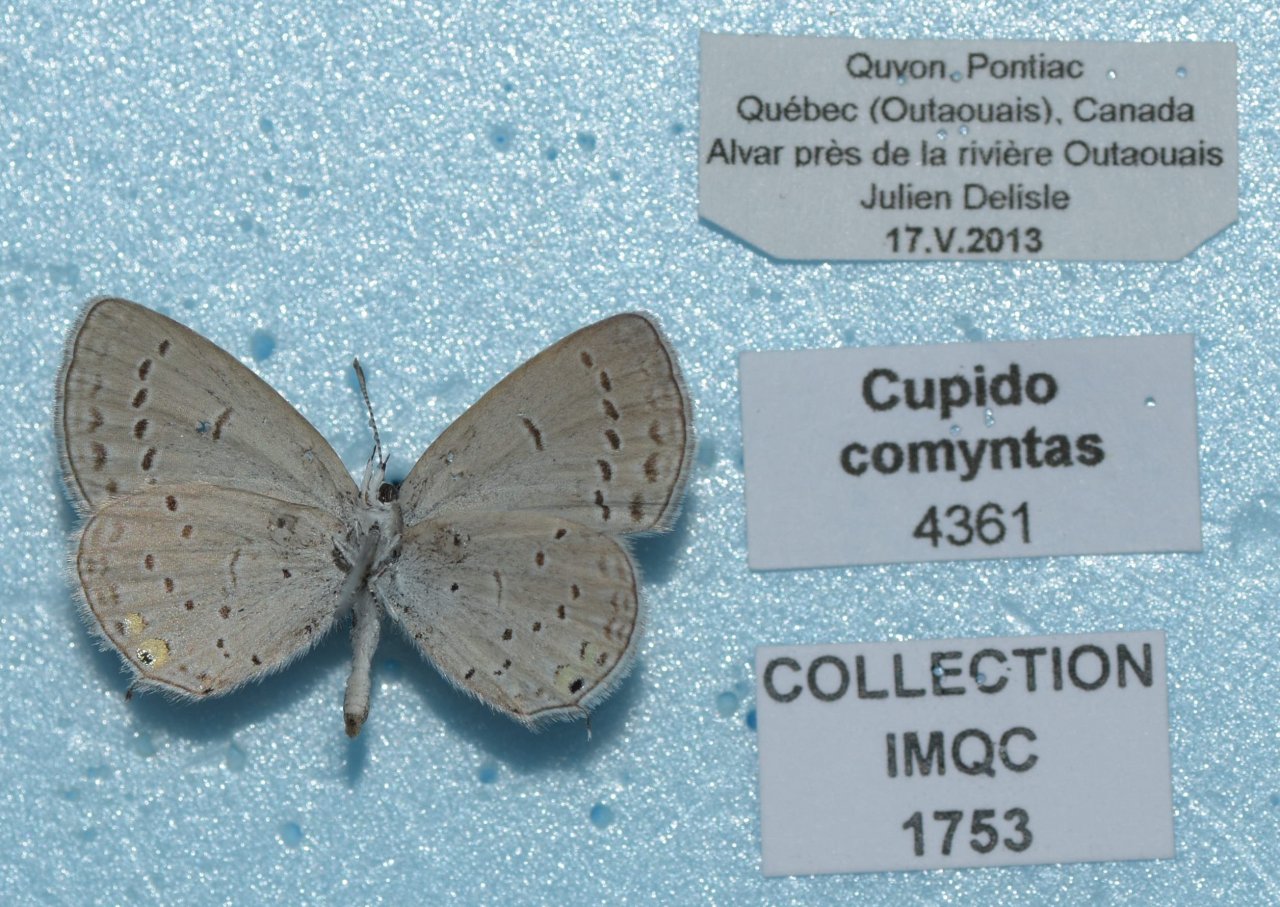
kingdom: Animalia
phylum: Arthropoda
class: Insecta
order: Lepidoptera
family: Lycaenidae
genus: Elkalyce
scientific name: Elkalyce comyntas
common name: Eastern Tailed-Blue
